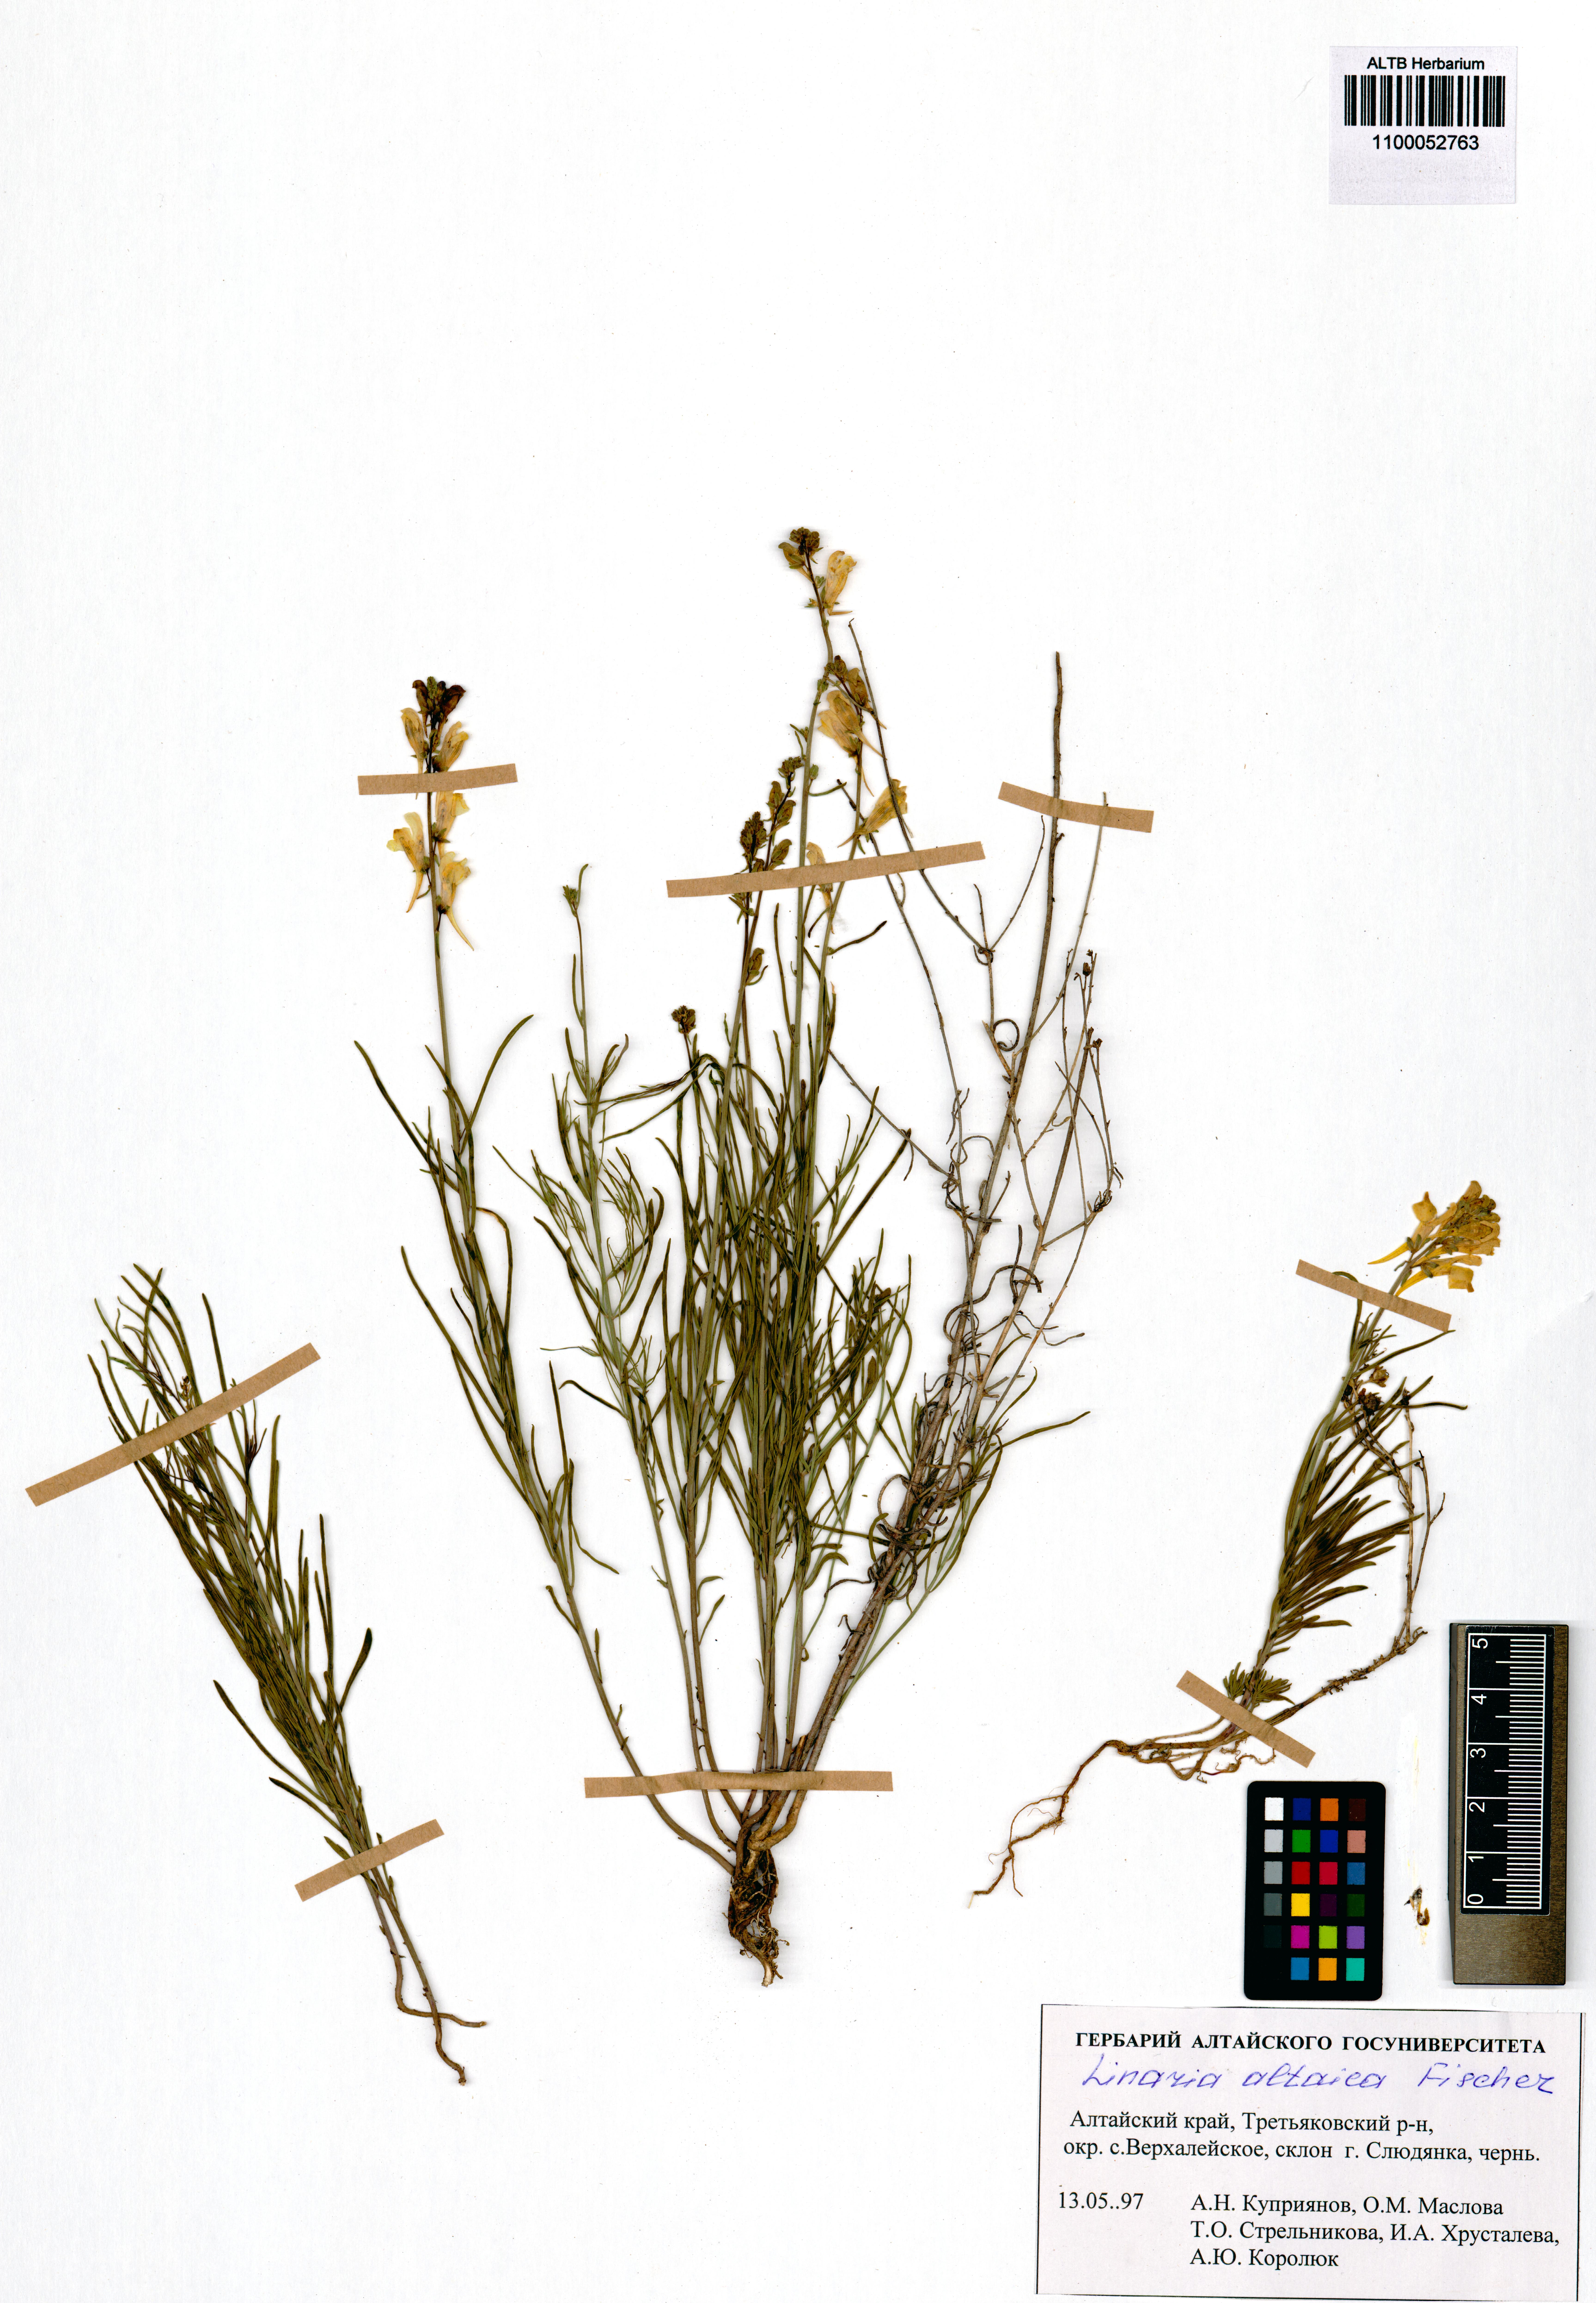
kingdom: Plantae
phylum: Tracheophyta
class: Magnoliopsida
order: Lamiales
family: Plantaginaceae
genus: Linaria
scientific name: Linaria altaica
